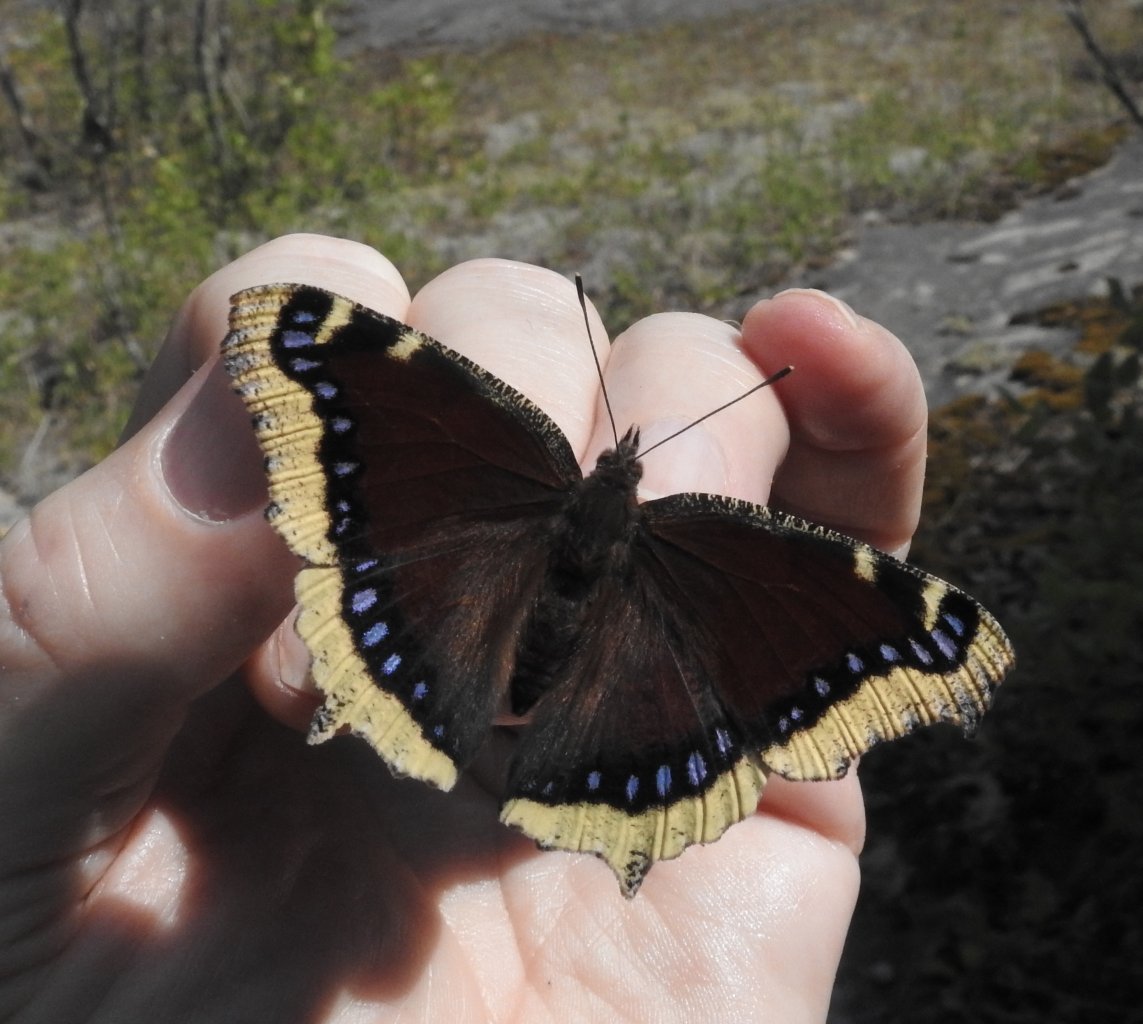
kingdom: Animalia
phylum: Arthropoda
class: Insecta
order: Lepidoptera
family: Nymphalidae
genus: Nymphalis
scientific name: Nymphalis antiopa
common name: Mourning Cloak
